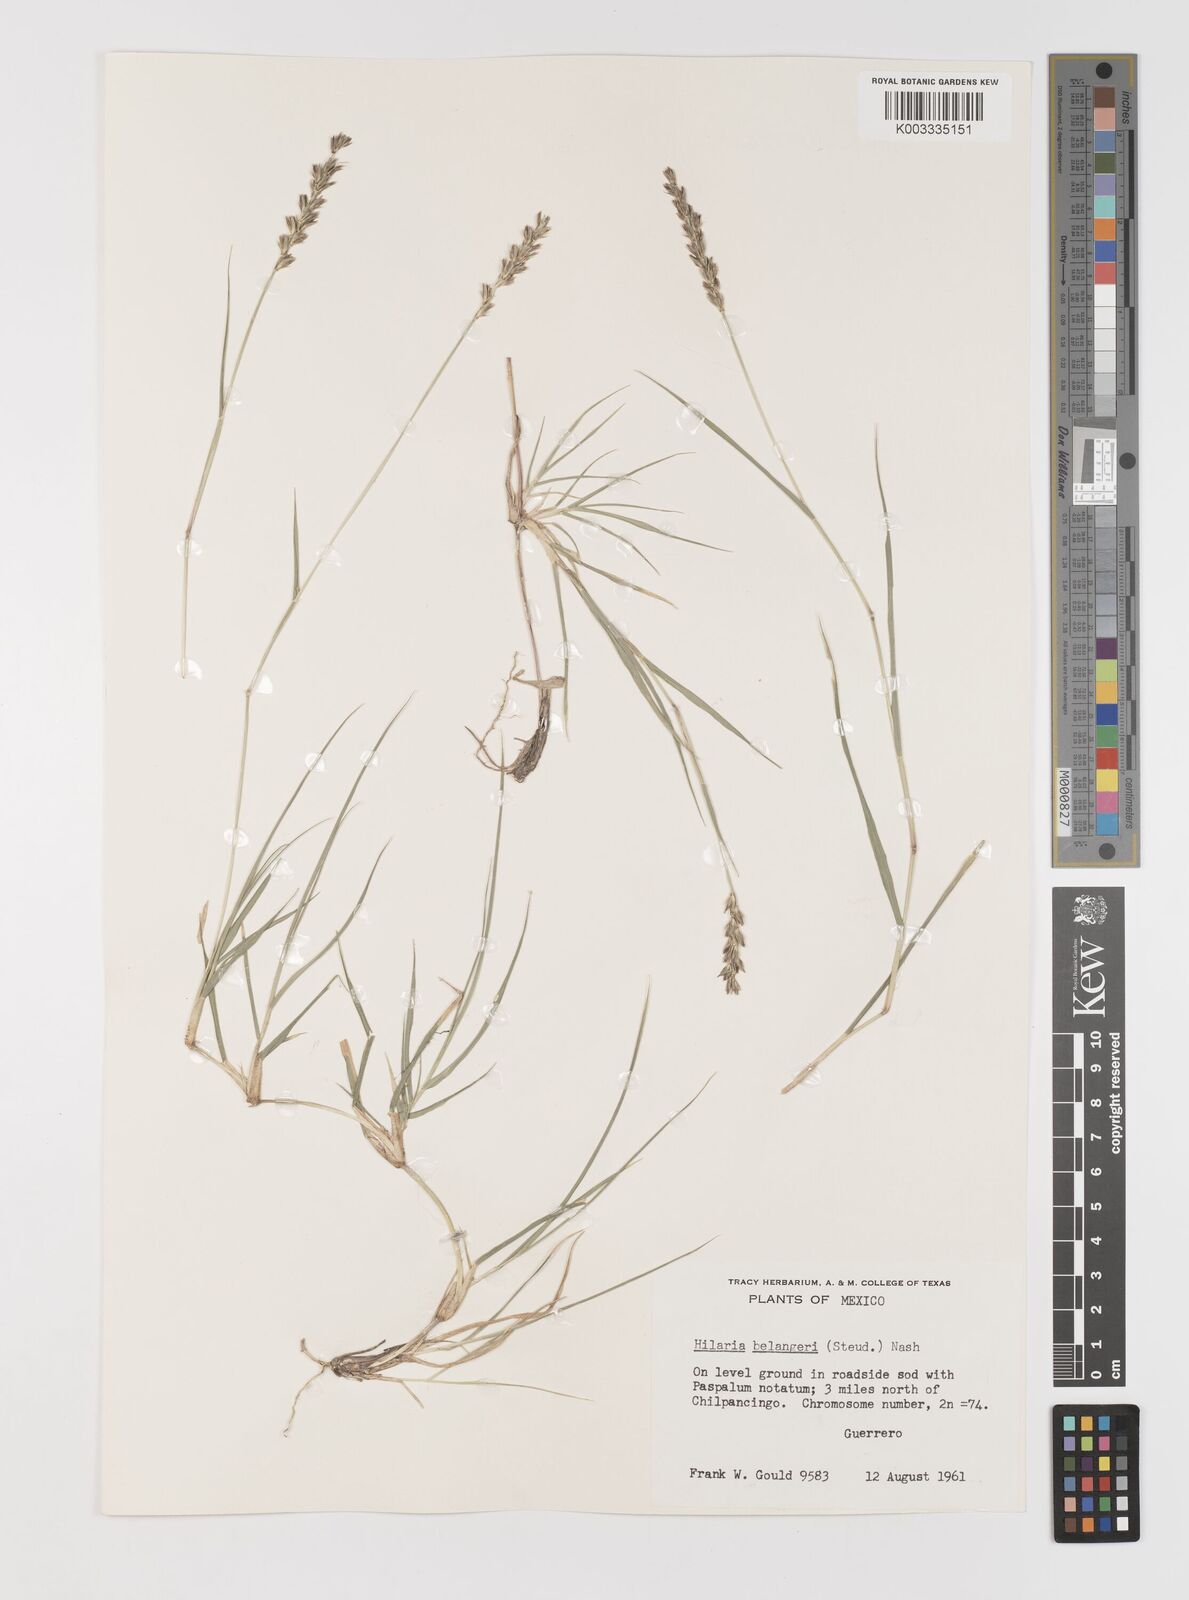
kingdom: Plantae
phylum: Tracheophyta
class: Liliopsida
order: Poales
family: Poaceae
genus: Hilaria
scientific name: Hilaria belangeri
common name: Curly-mesquite
